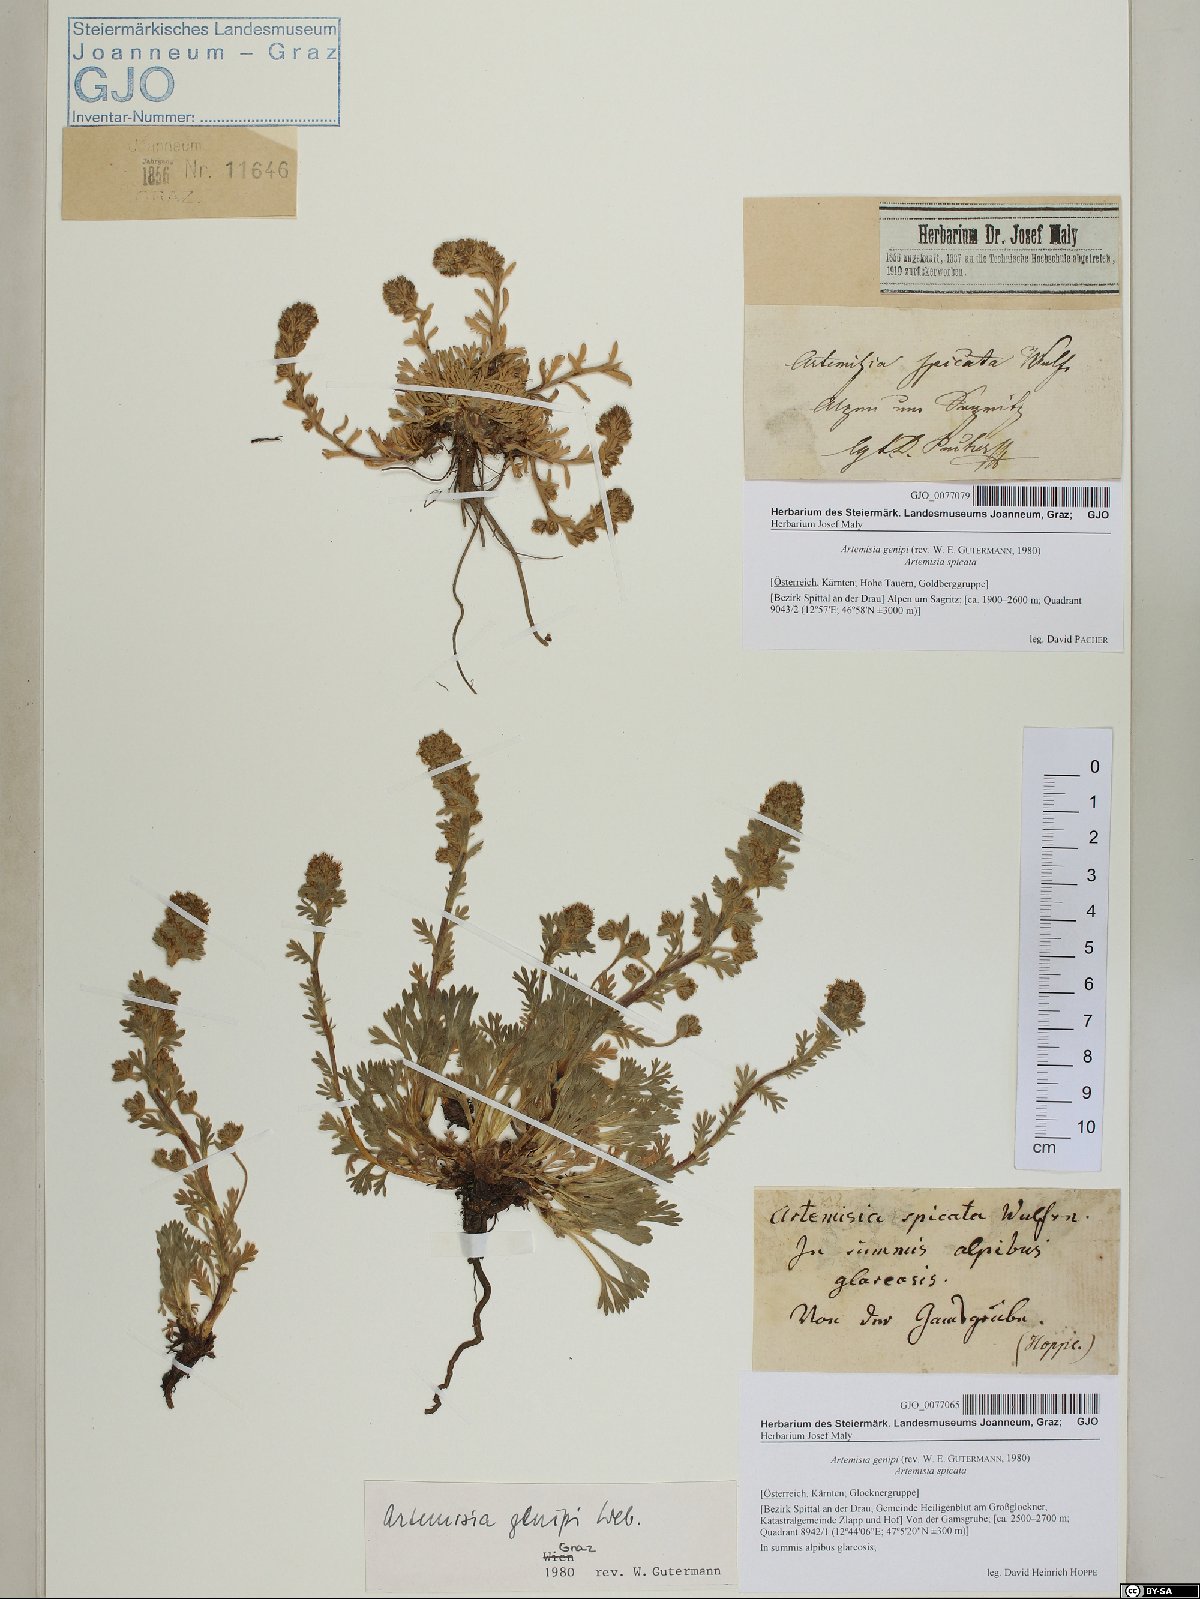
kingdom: Plantae
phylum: Tracheophyta
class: Magnoliopsida
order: Asterales
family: Asteraceae
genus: Artemisia
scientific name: Artemisia genipi
